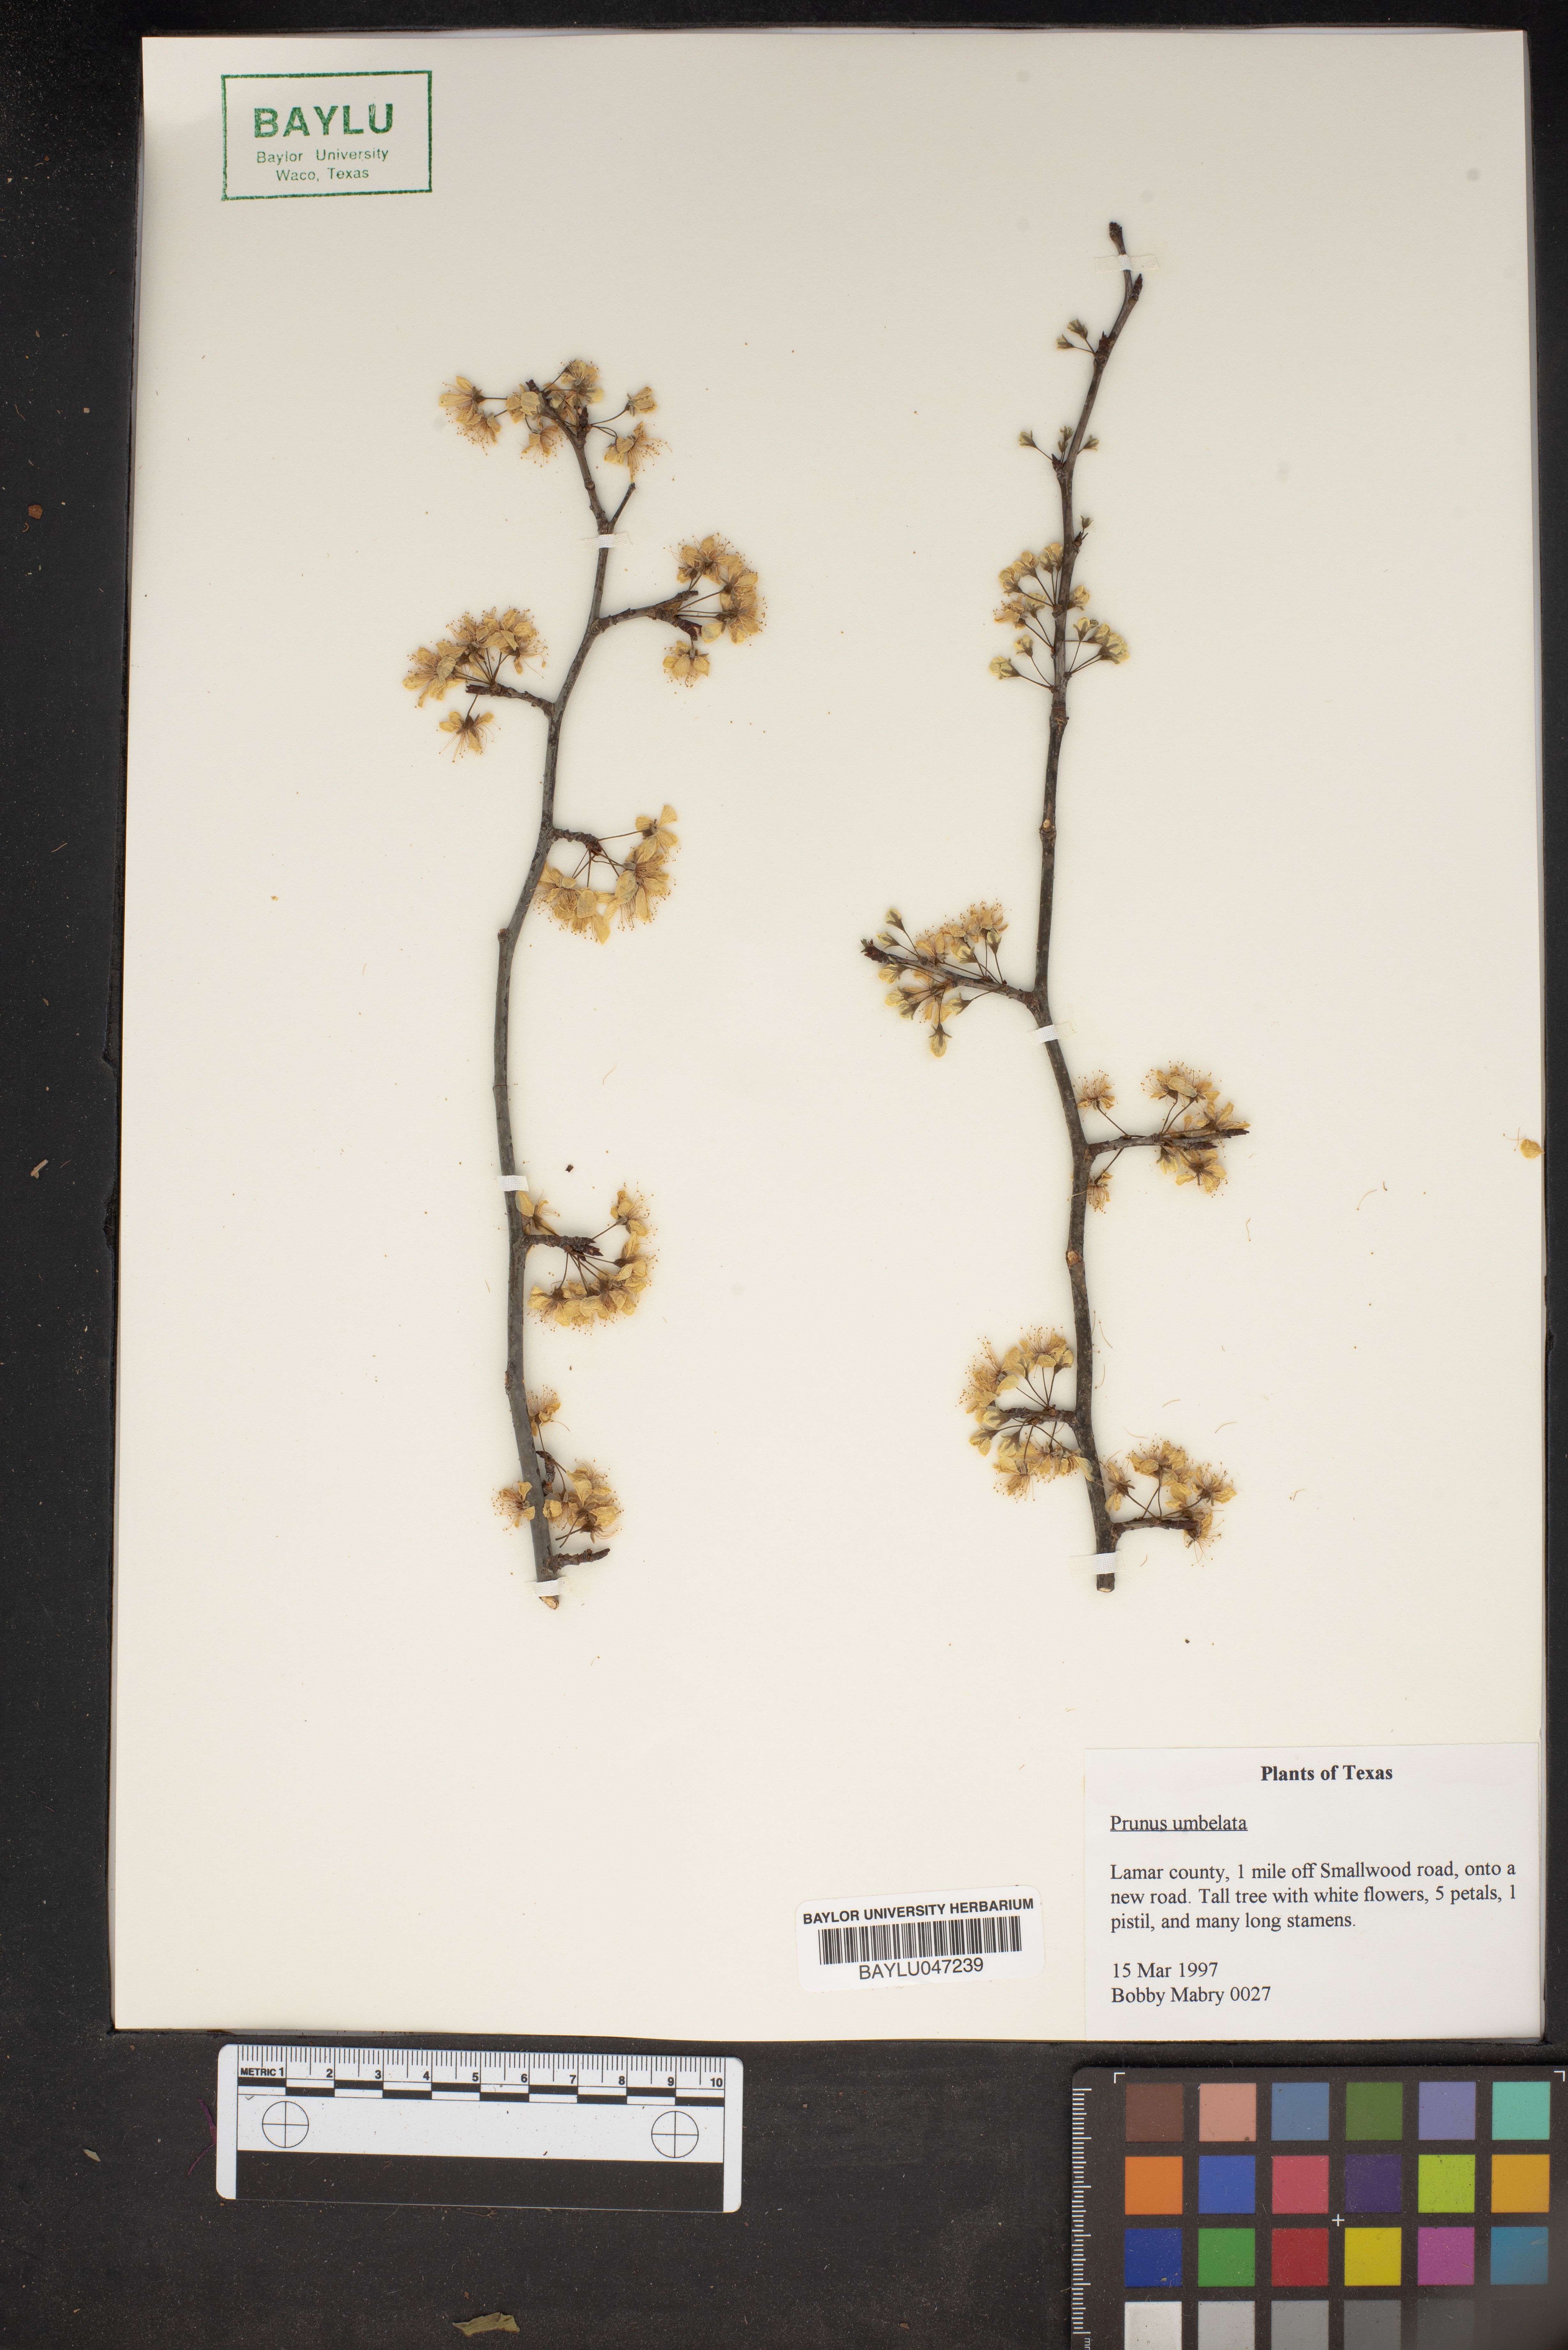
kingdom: Plantae
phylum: Tracheophyta
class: Magnoliopsida
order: Rosales
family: Rosaceae
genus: Prunus
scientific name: Prunus umbellata
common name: Allegheny plum
